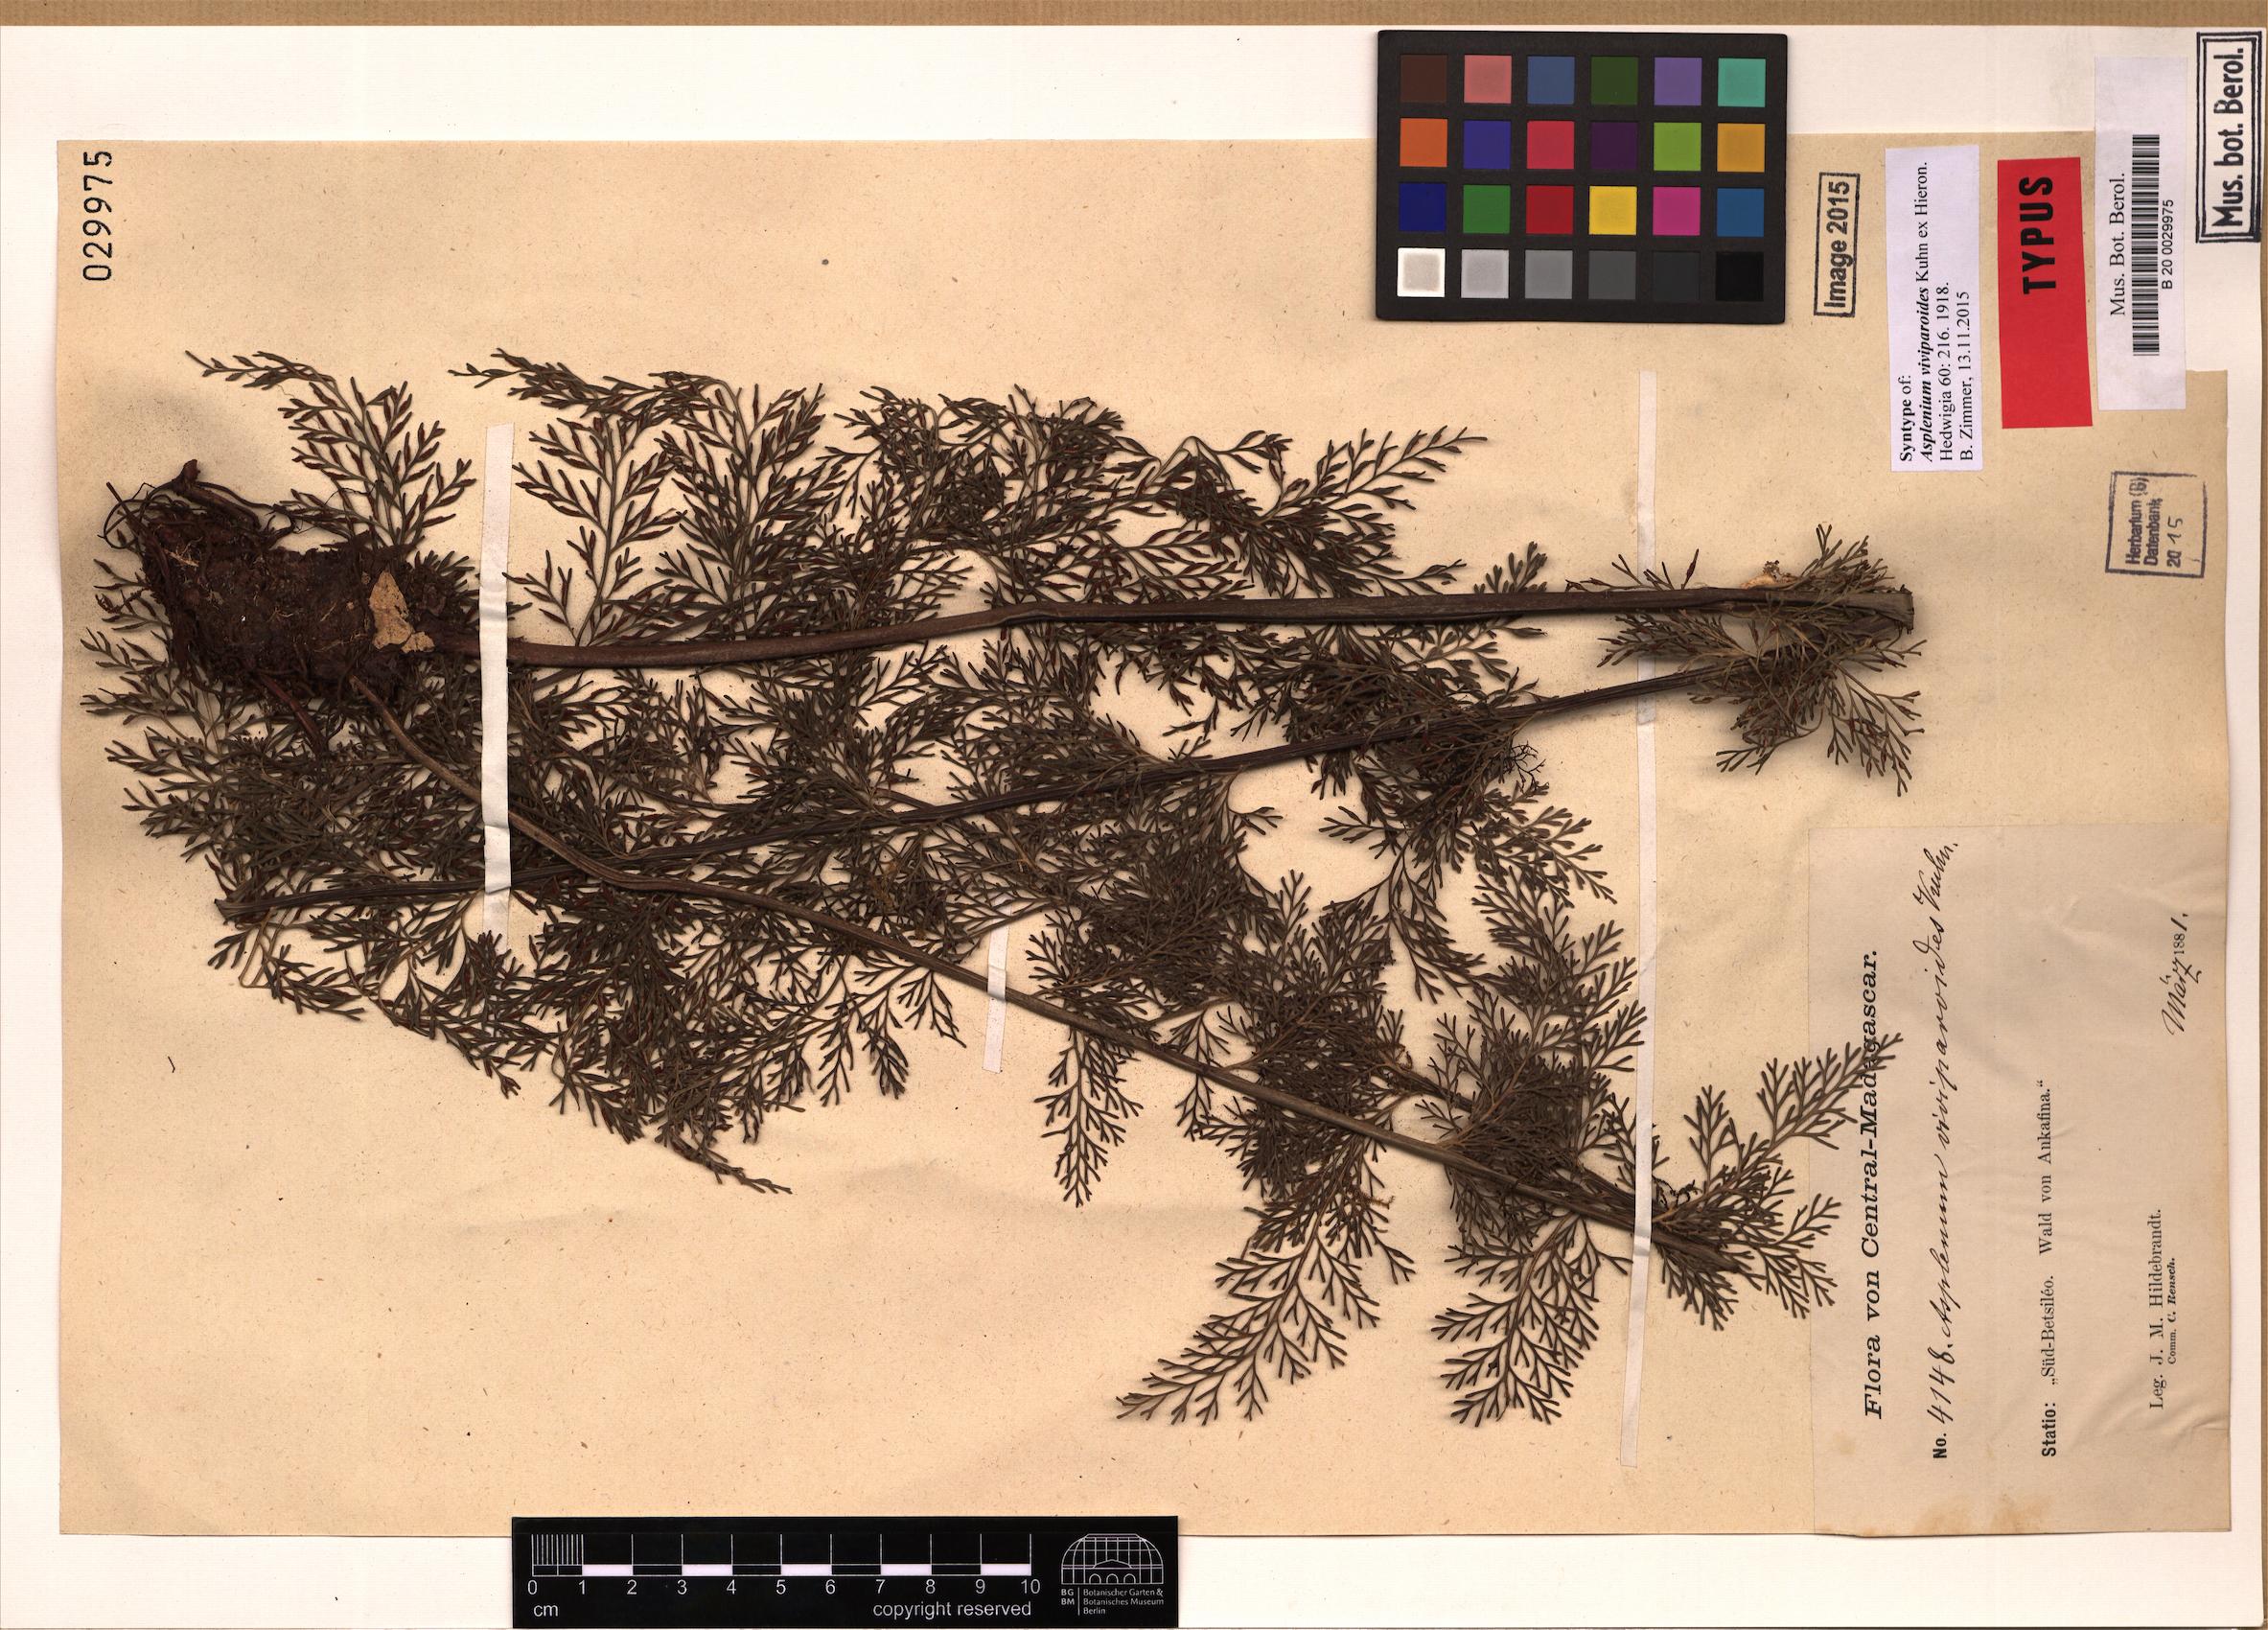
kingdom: Plantae
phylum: Tracheophyta
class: Polypodiopsida
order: Polypodiales
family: Aspleniaceae
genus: Asplenium
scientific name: Asplenium viviparioides
